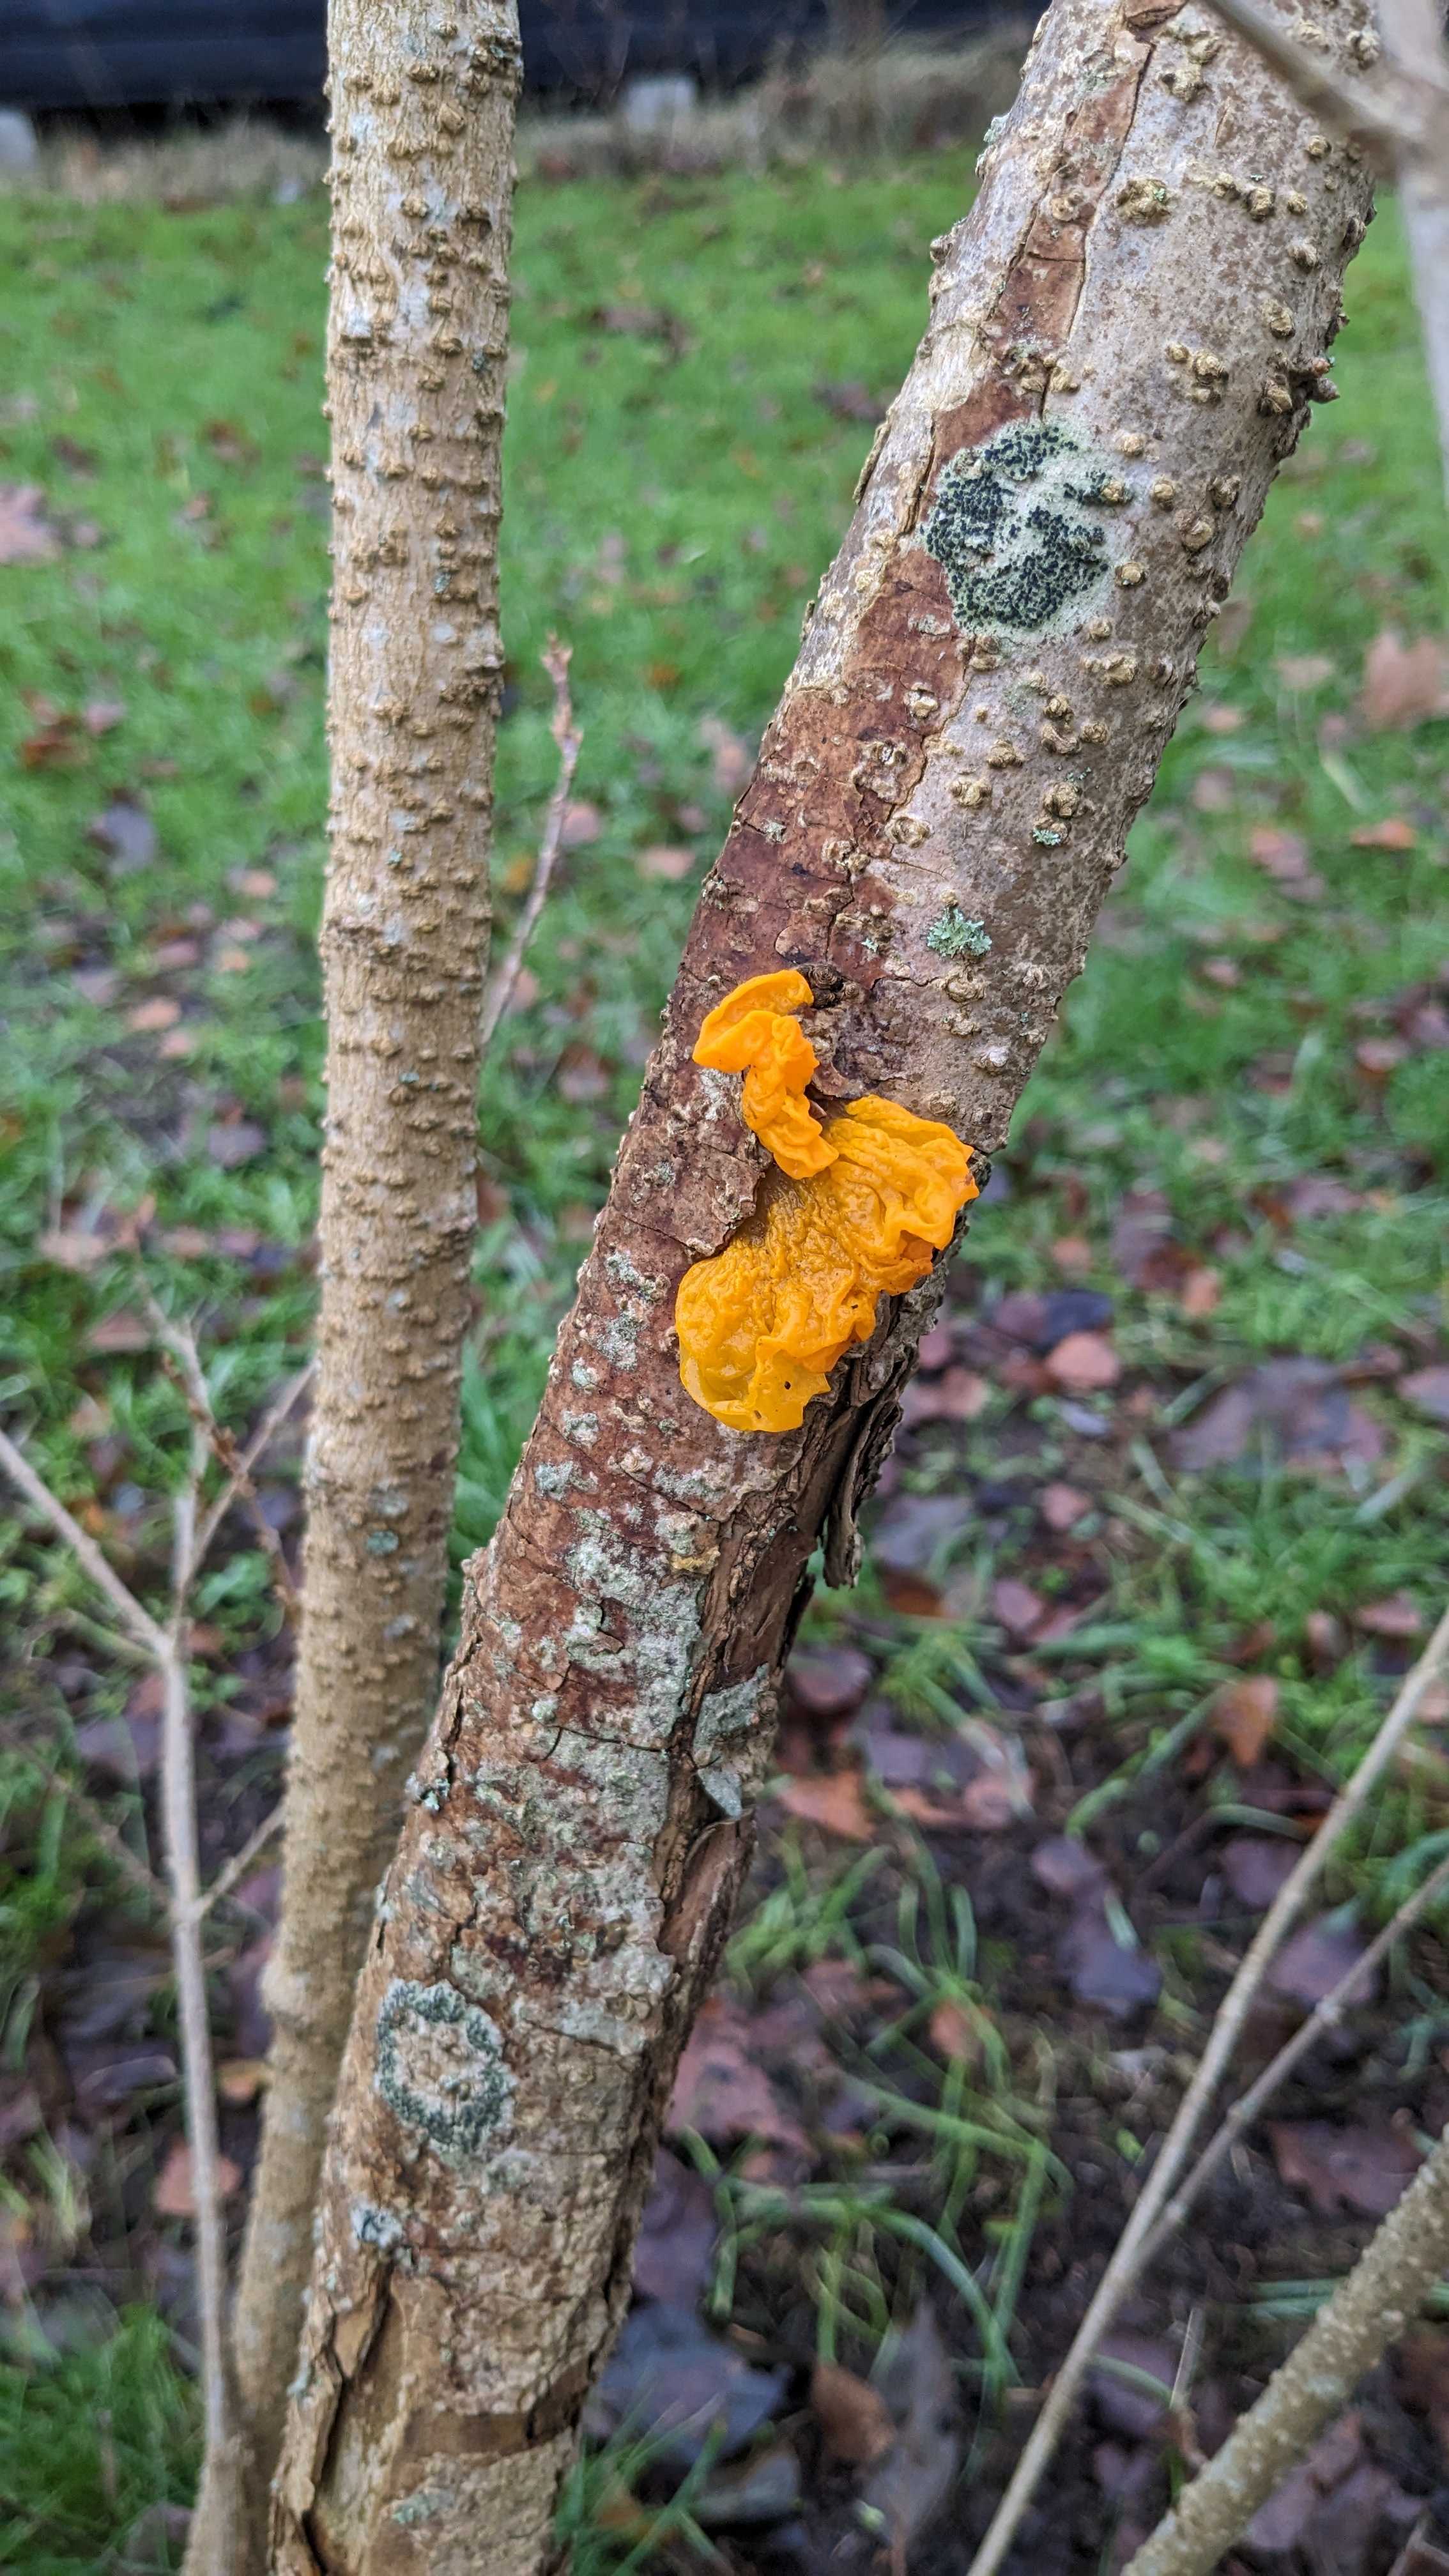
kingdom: Fungi
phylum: Basidiomycota
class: Tremellomycetes
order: Tremellales
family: Tremellaceae
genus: Tremella
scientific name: Tremella mesenterica
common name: gul bævresvamp
